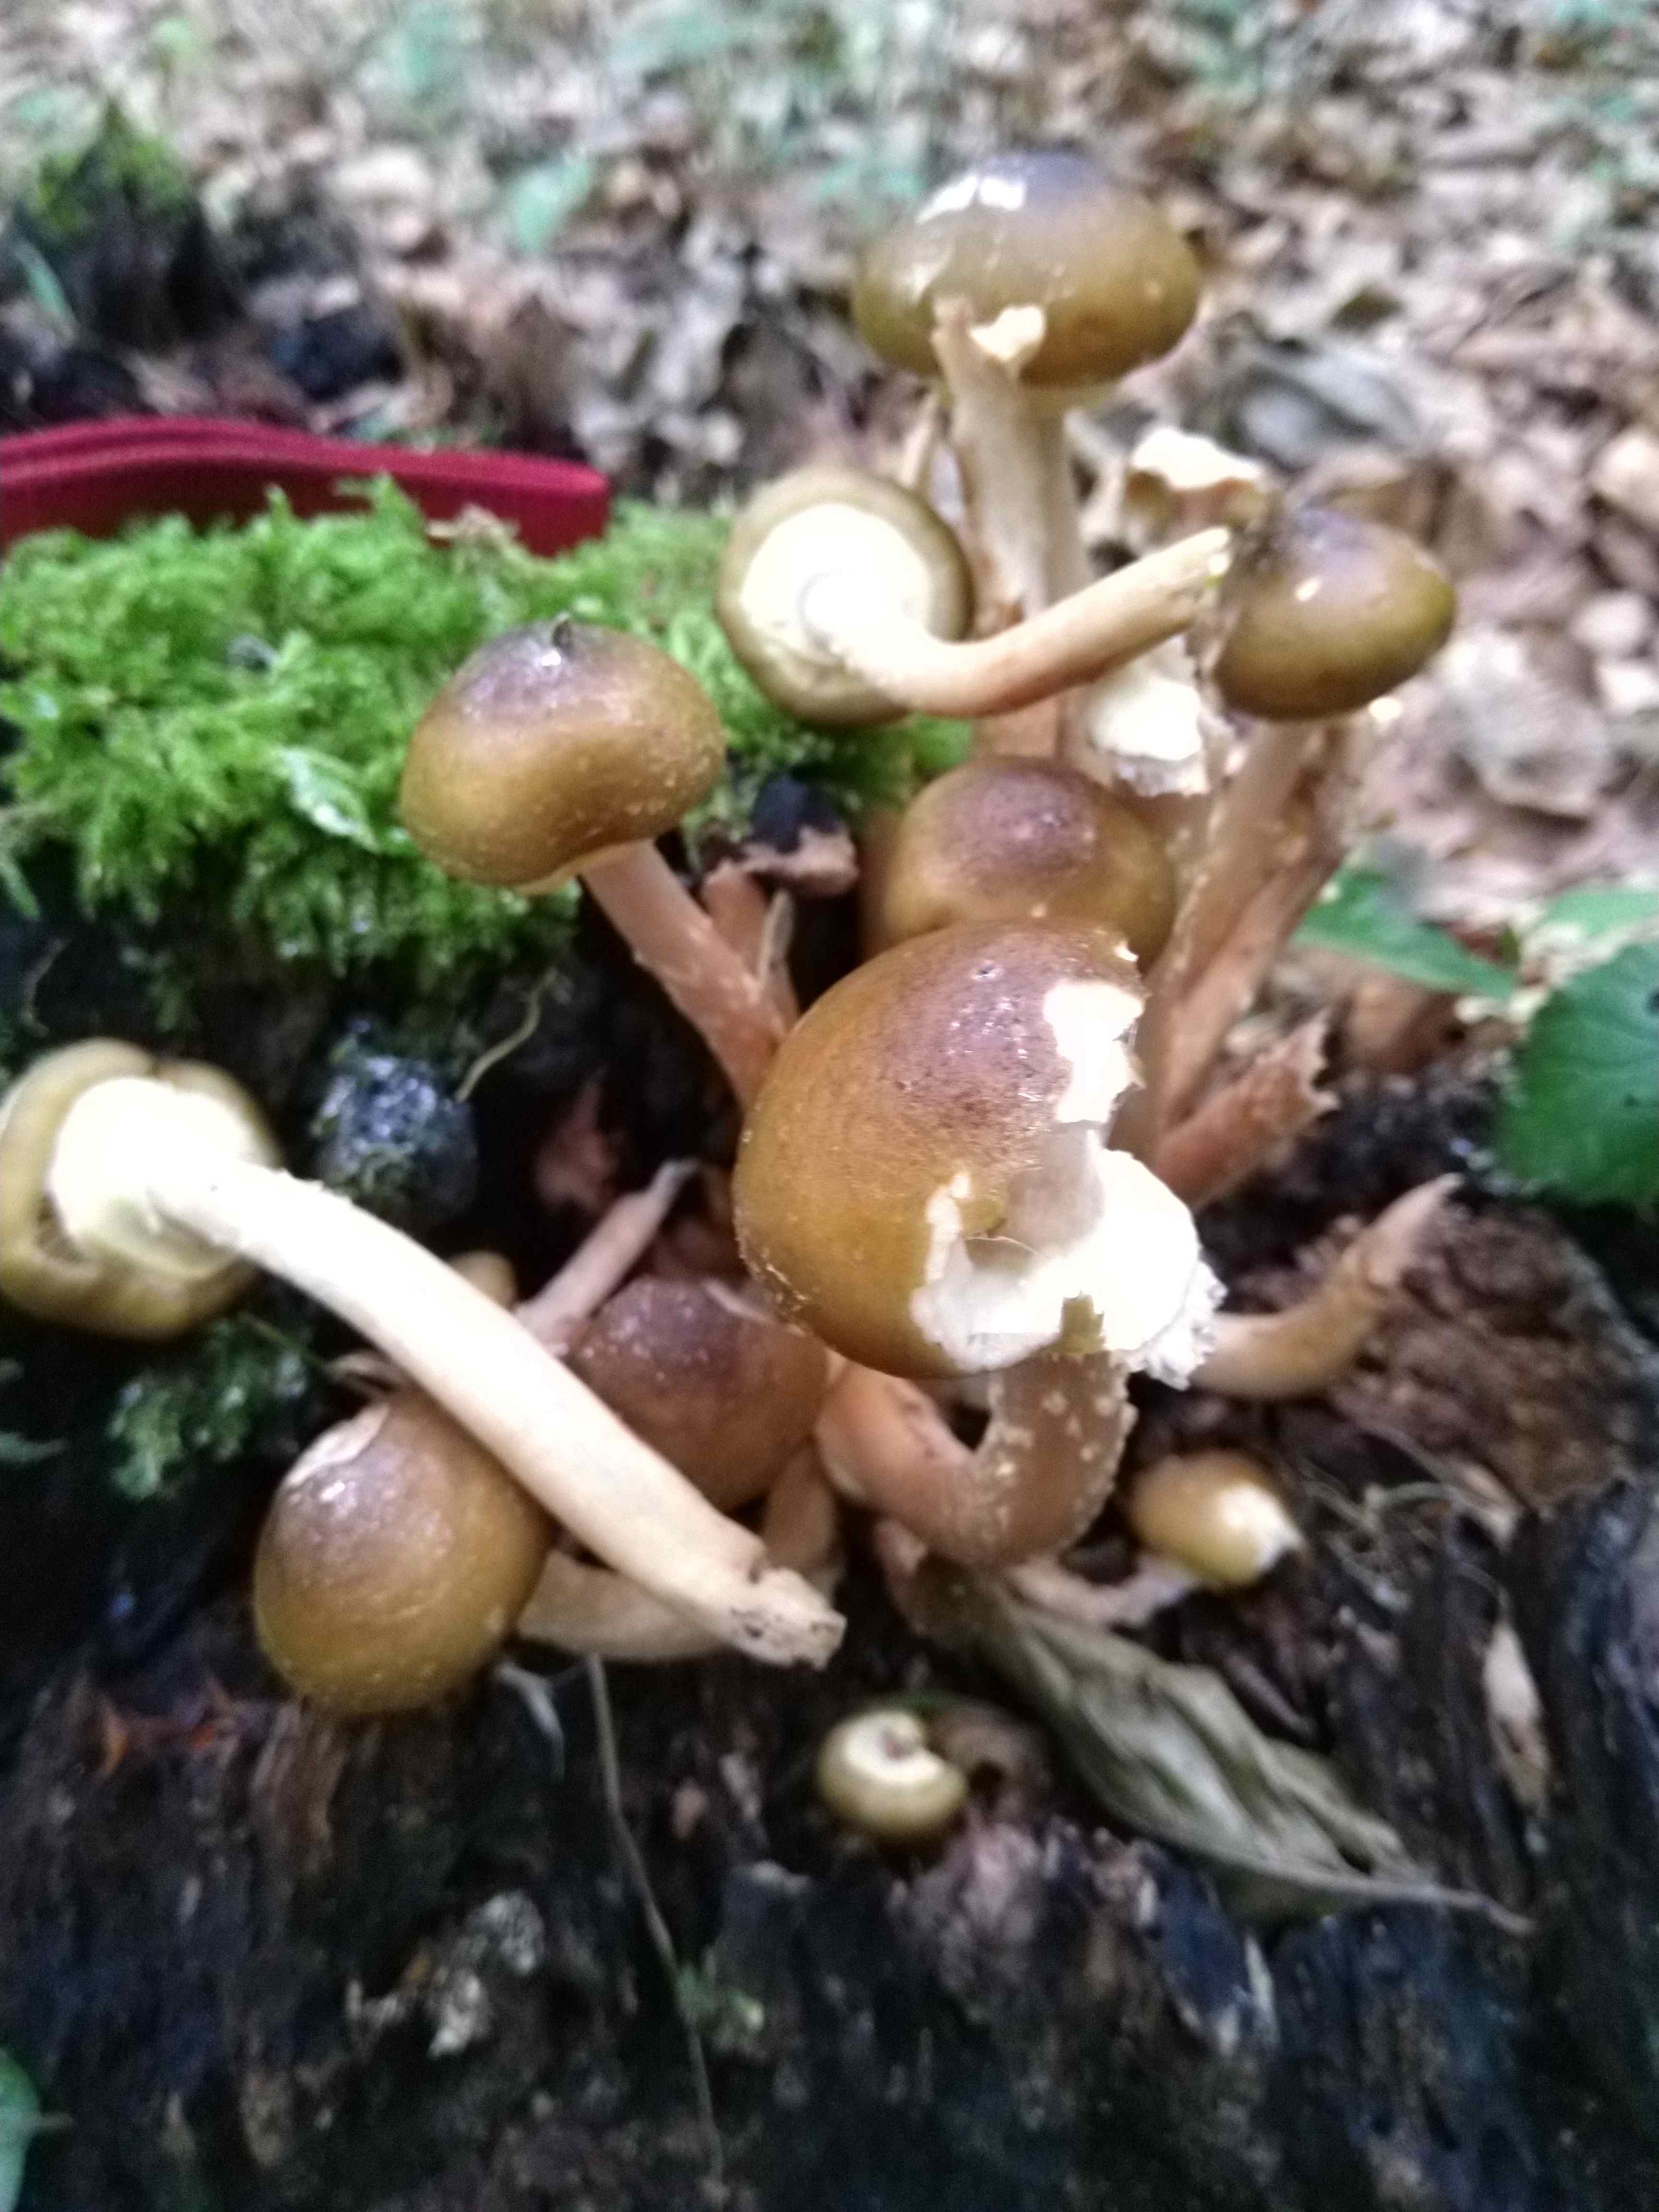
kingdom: Fungi
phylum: Basidiomycota
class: Agaricomycetes
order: Agaricales
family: Physalacriaceae
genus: Armillaria
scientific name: Armillaria mellea
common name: ægte honningsvamp
